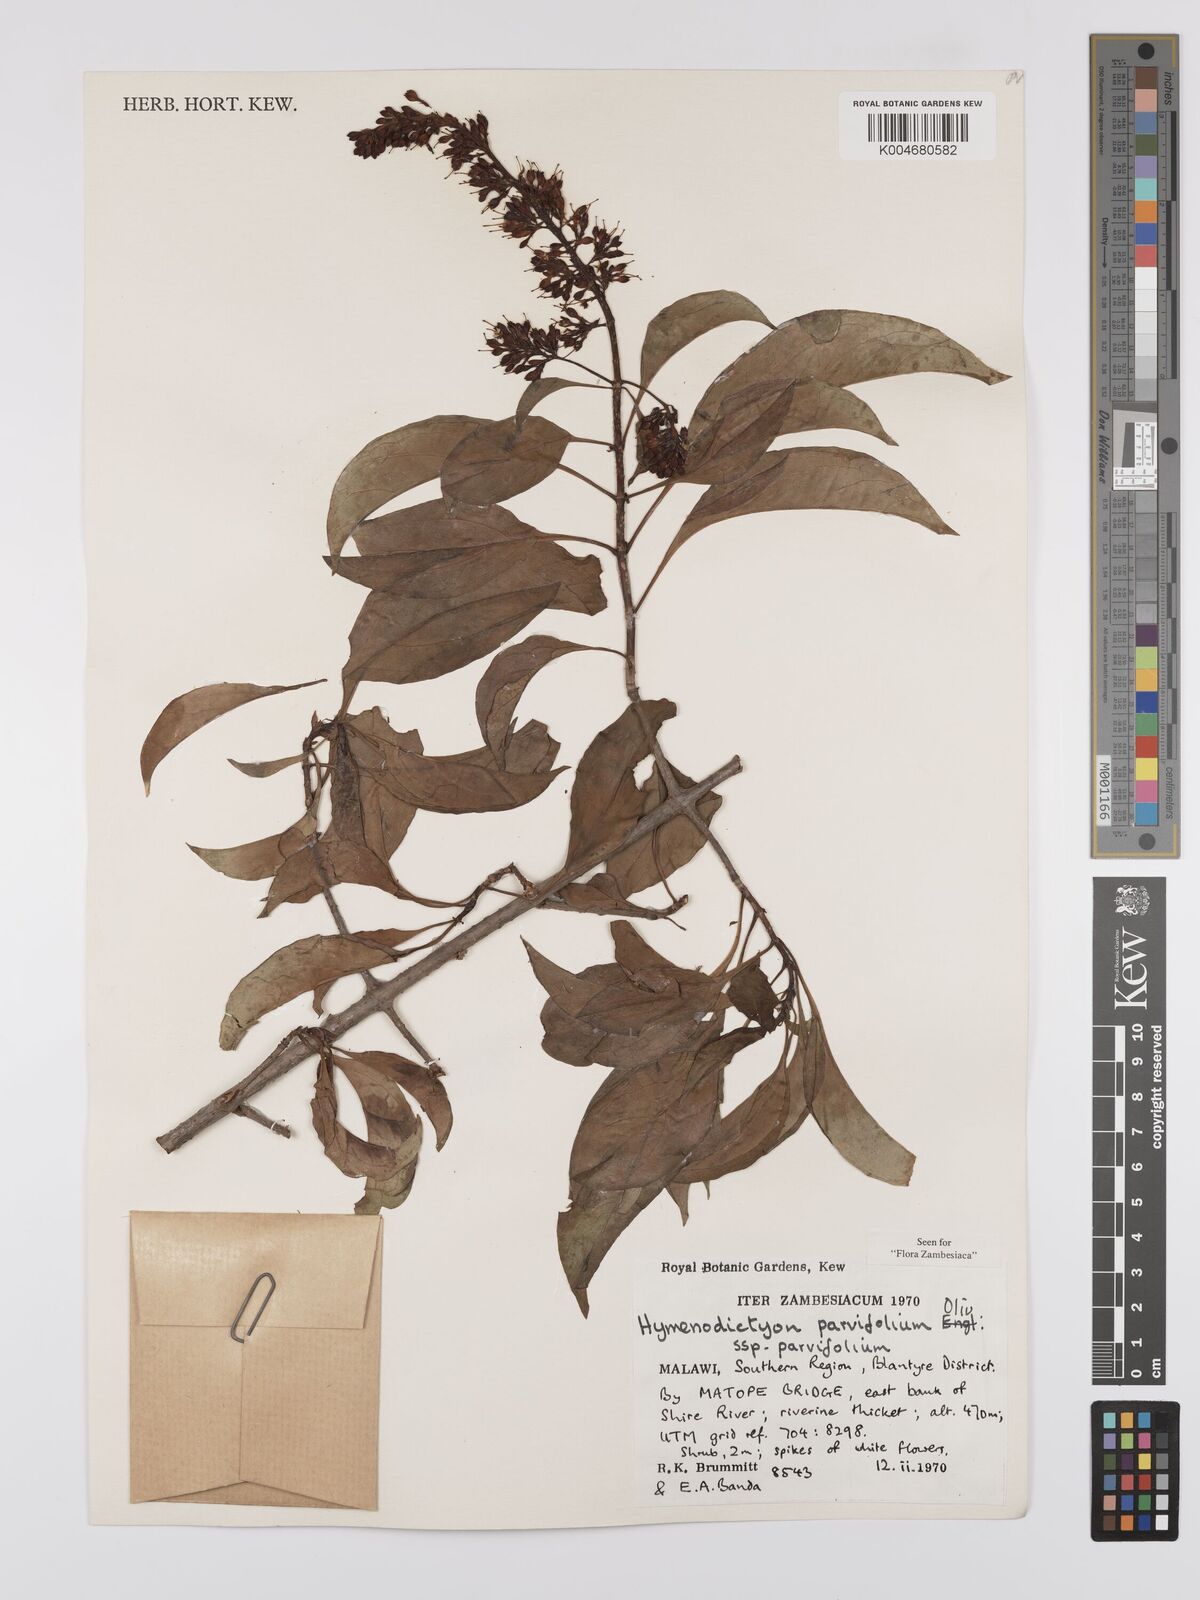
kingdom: Plantae
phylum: Tracheophyta
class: Magnoliopsida
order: Gentianales
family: Rubiaceae
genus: Hymenodictyon
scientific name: Hymenodictyon parvifolium
